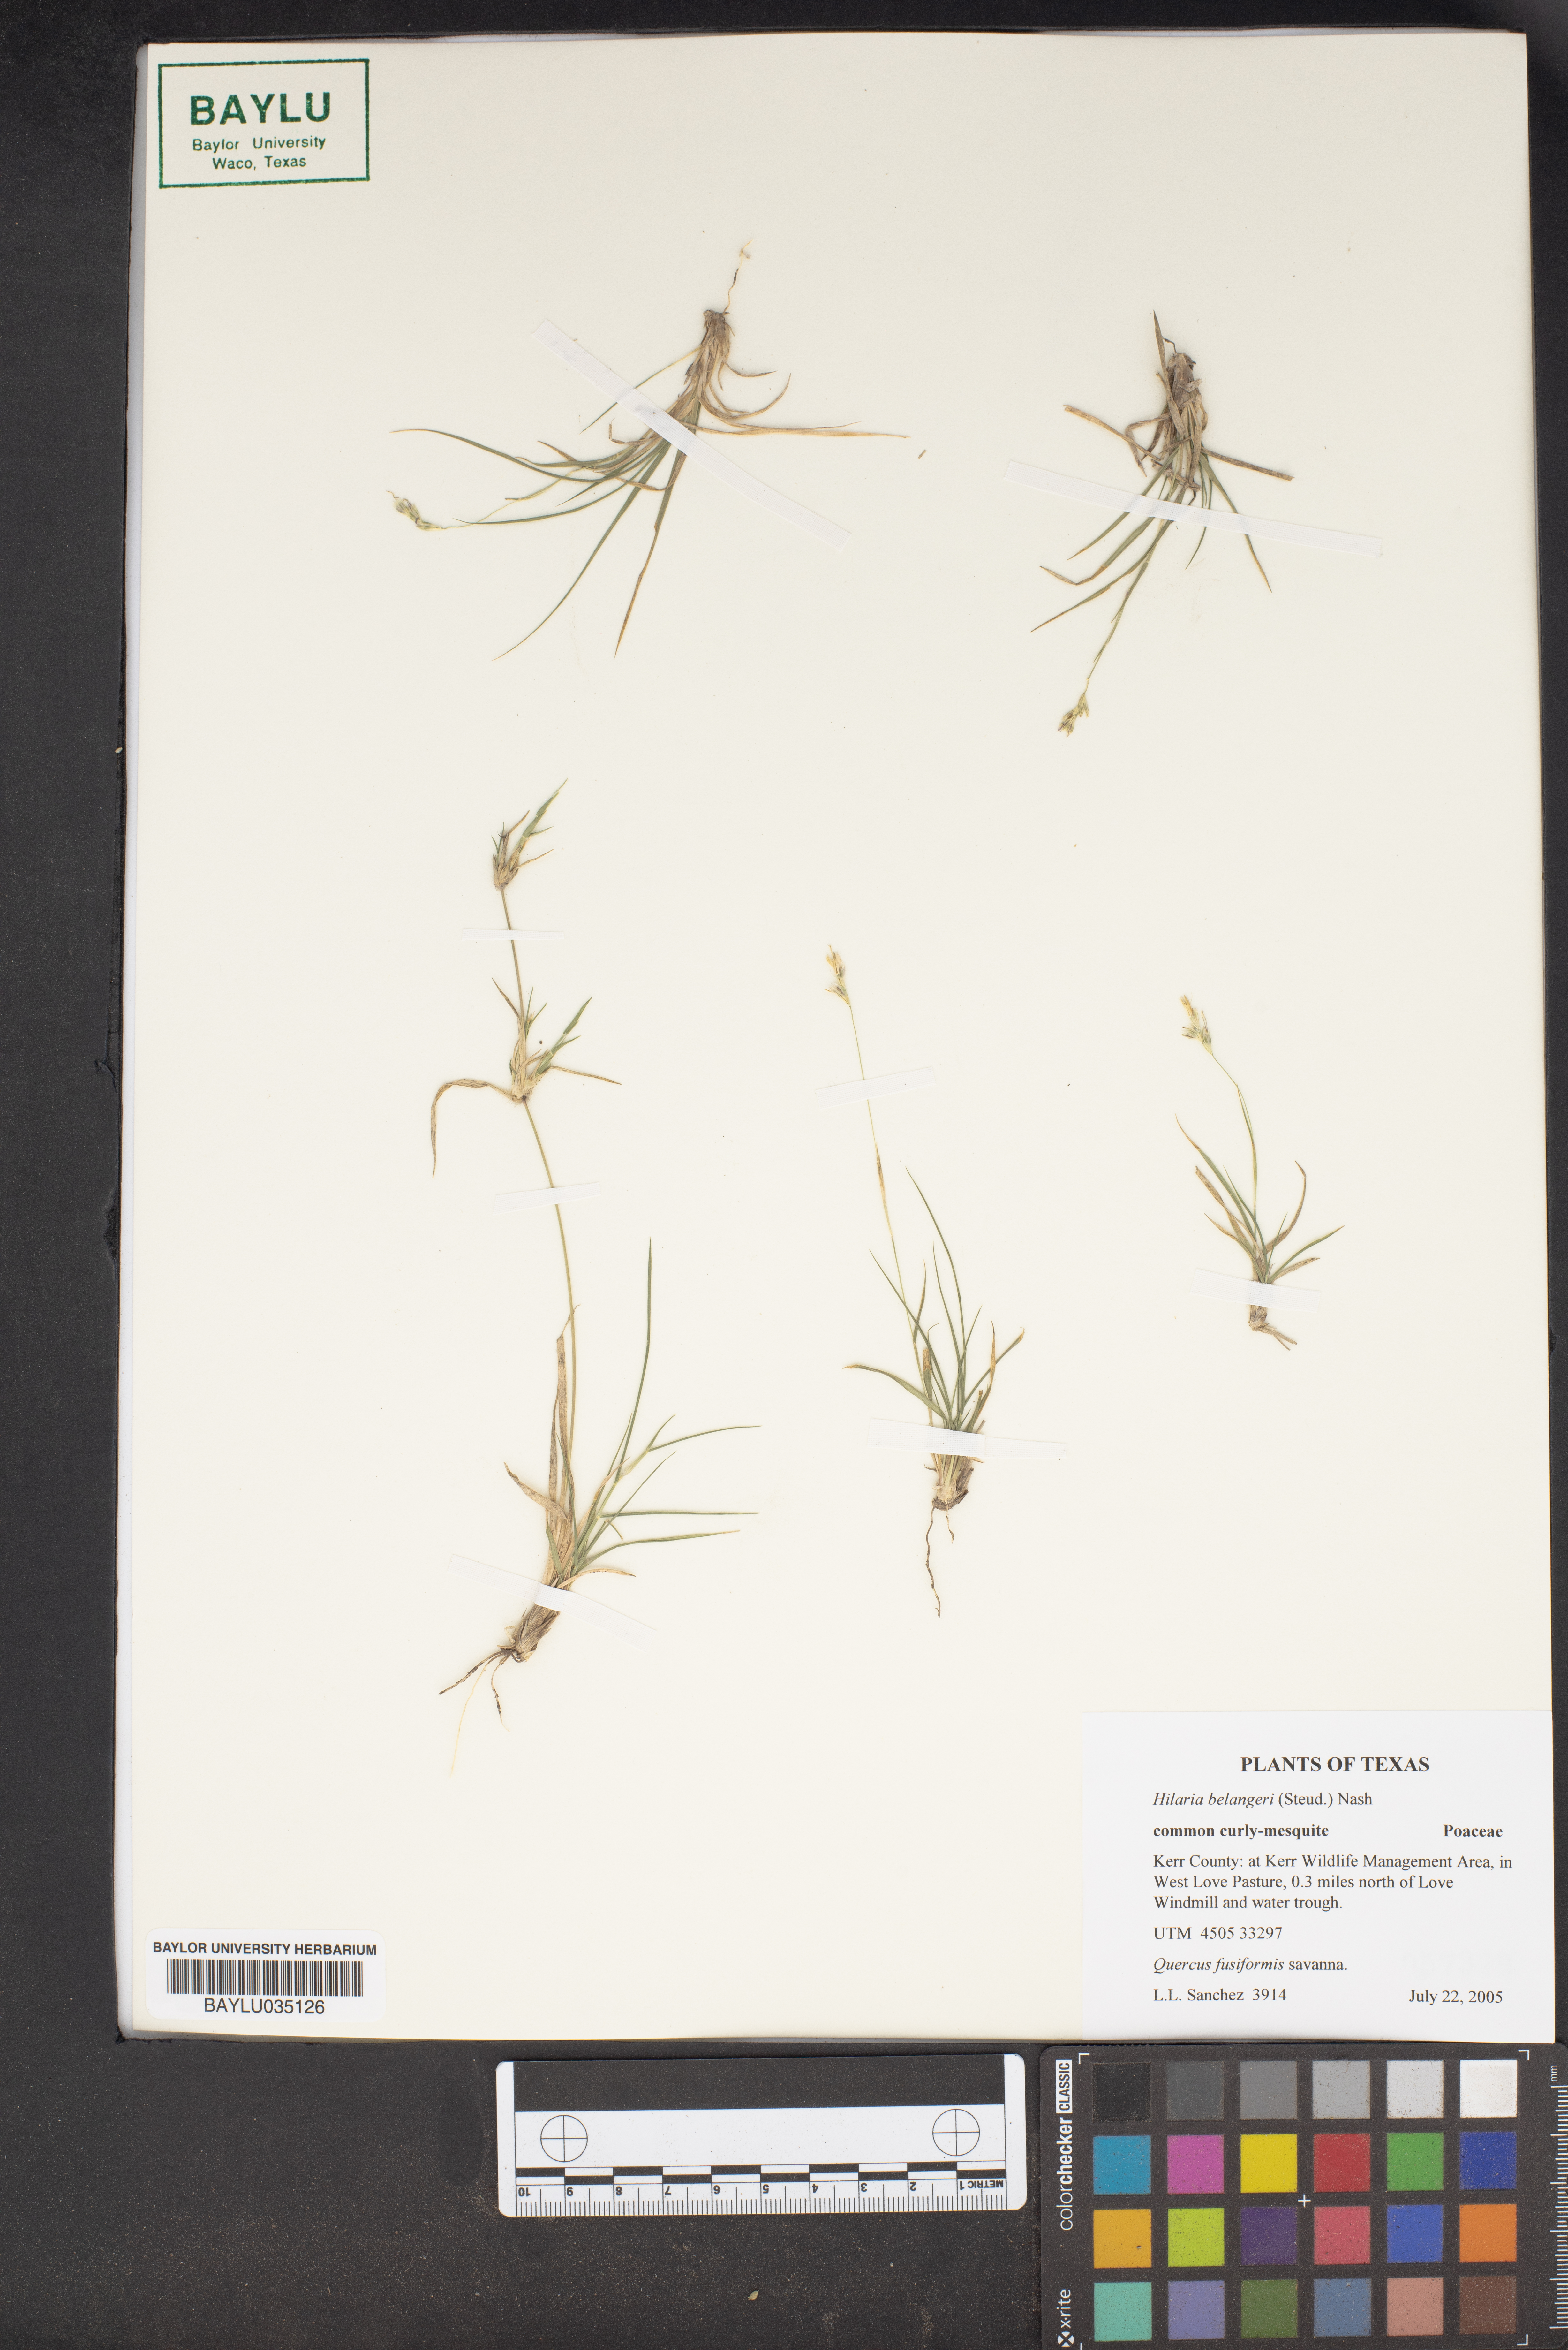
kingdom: Plantae
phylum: Tracheophyta
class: Liliopsida
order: Poales
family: Poaceae
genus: Hilaria
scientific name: Hilaria belangeri
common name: Curly-mesquite
